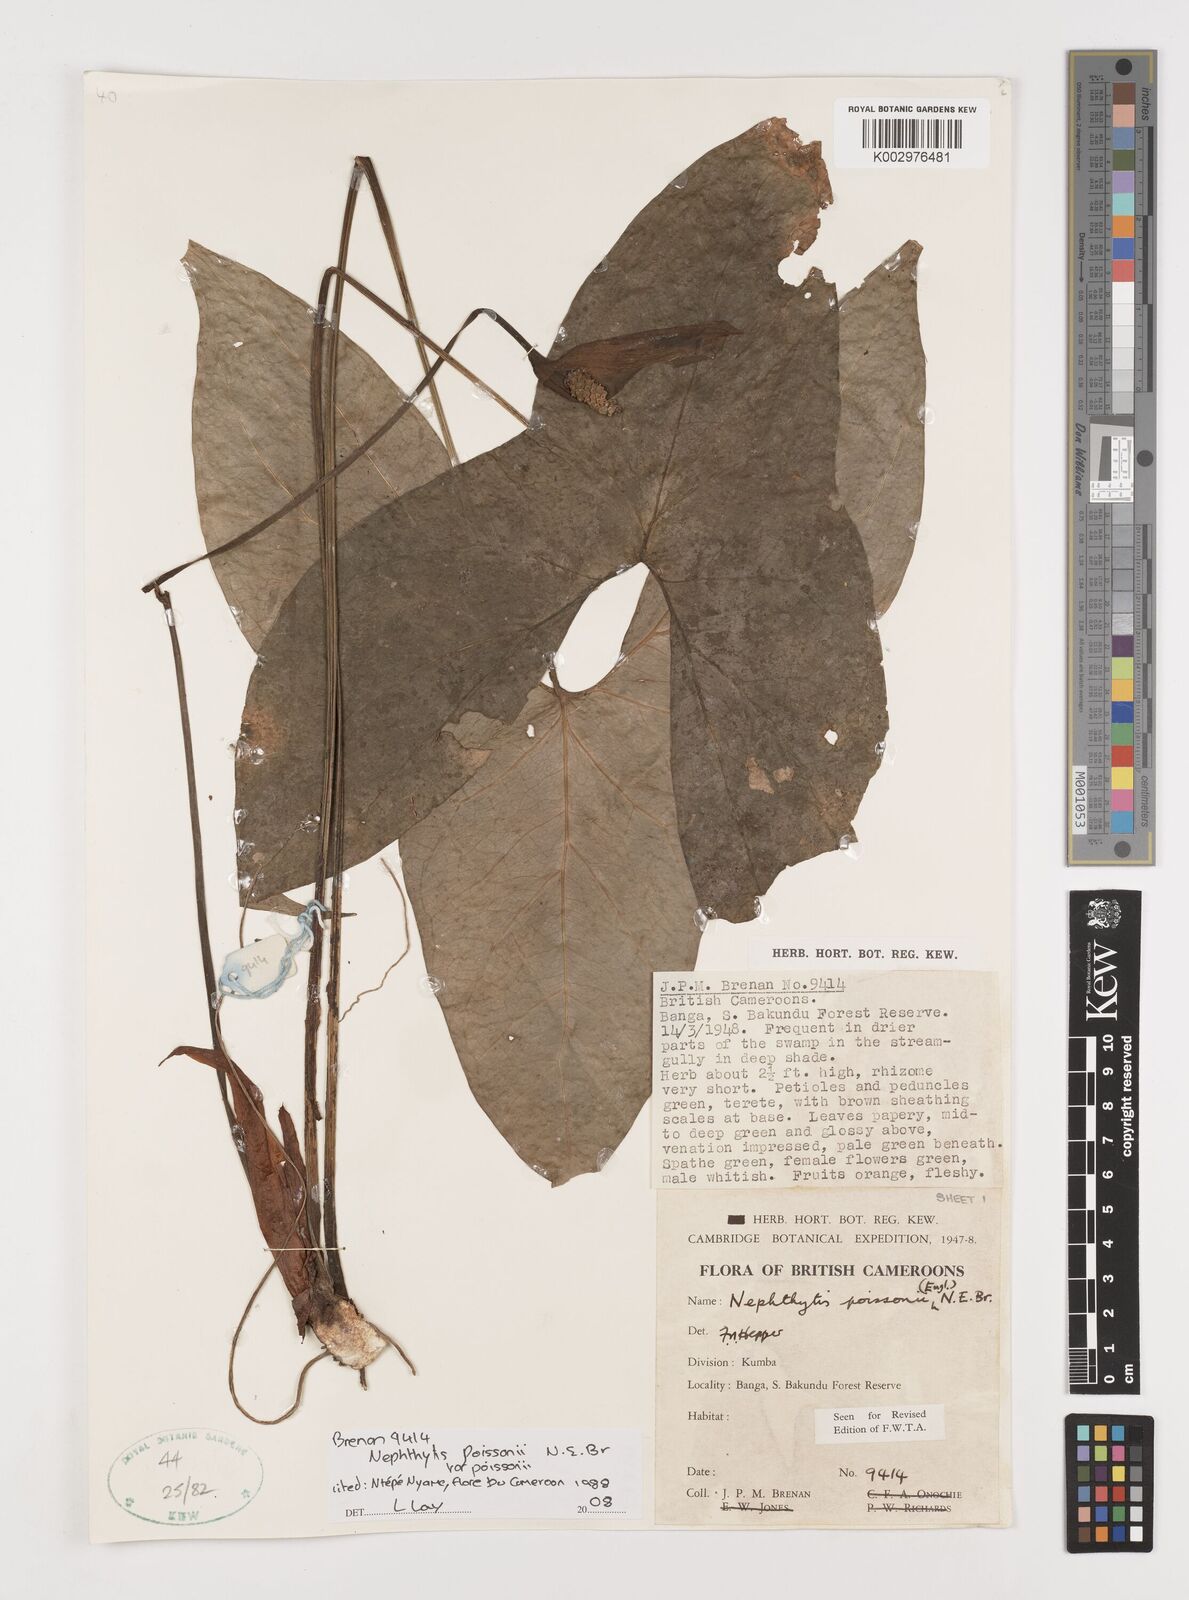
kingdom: Plantae
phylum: Tracheophyta
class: Liliopsida
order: Alismatales
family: Araceae
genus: Nephthytis
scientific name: Nephthytis poissonii
